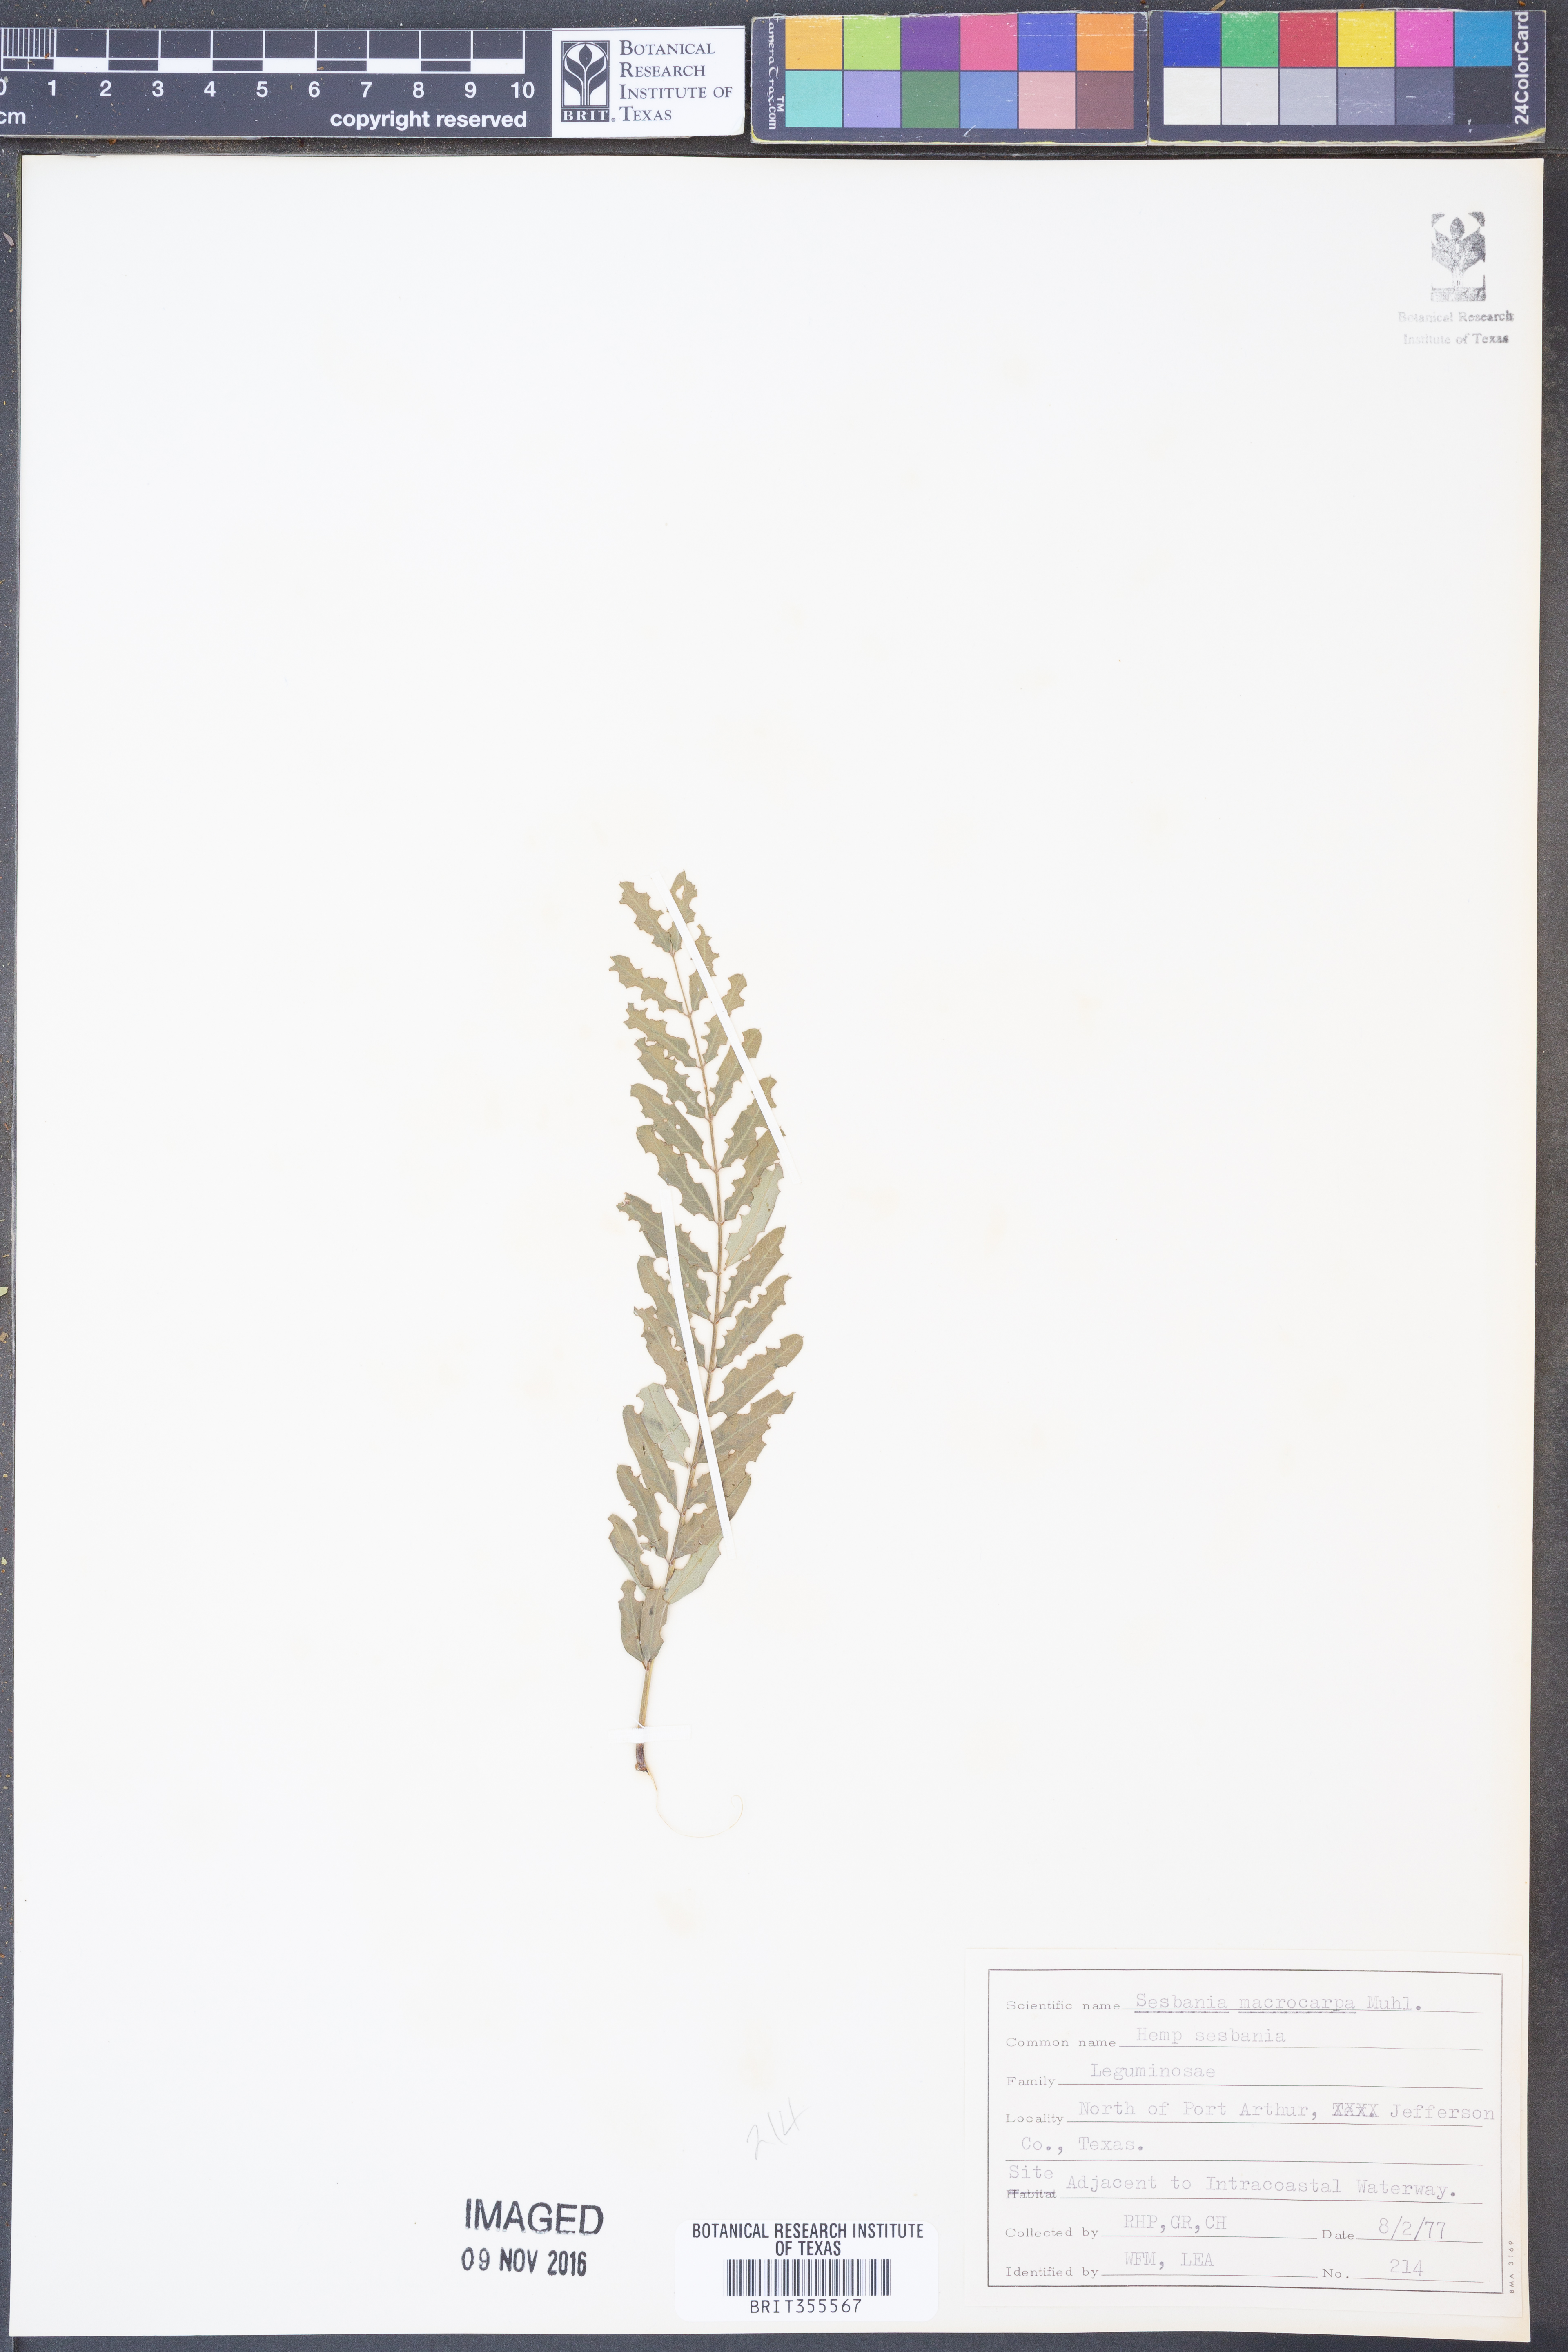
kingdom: Plantae
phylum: Tracheophyta
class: Magnoliopsida
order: Fabales
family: Fabaceae
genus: Sesbania
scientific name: Sesbania vesicaria
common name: Bagpod
